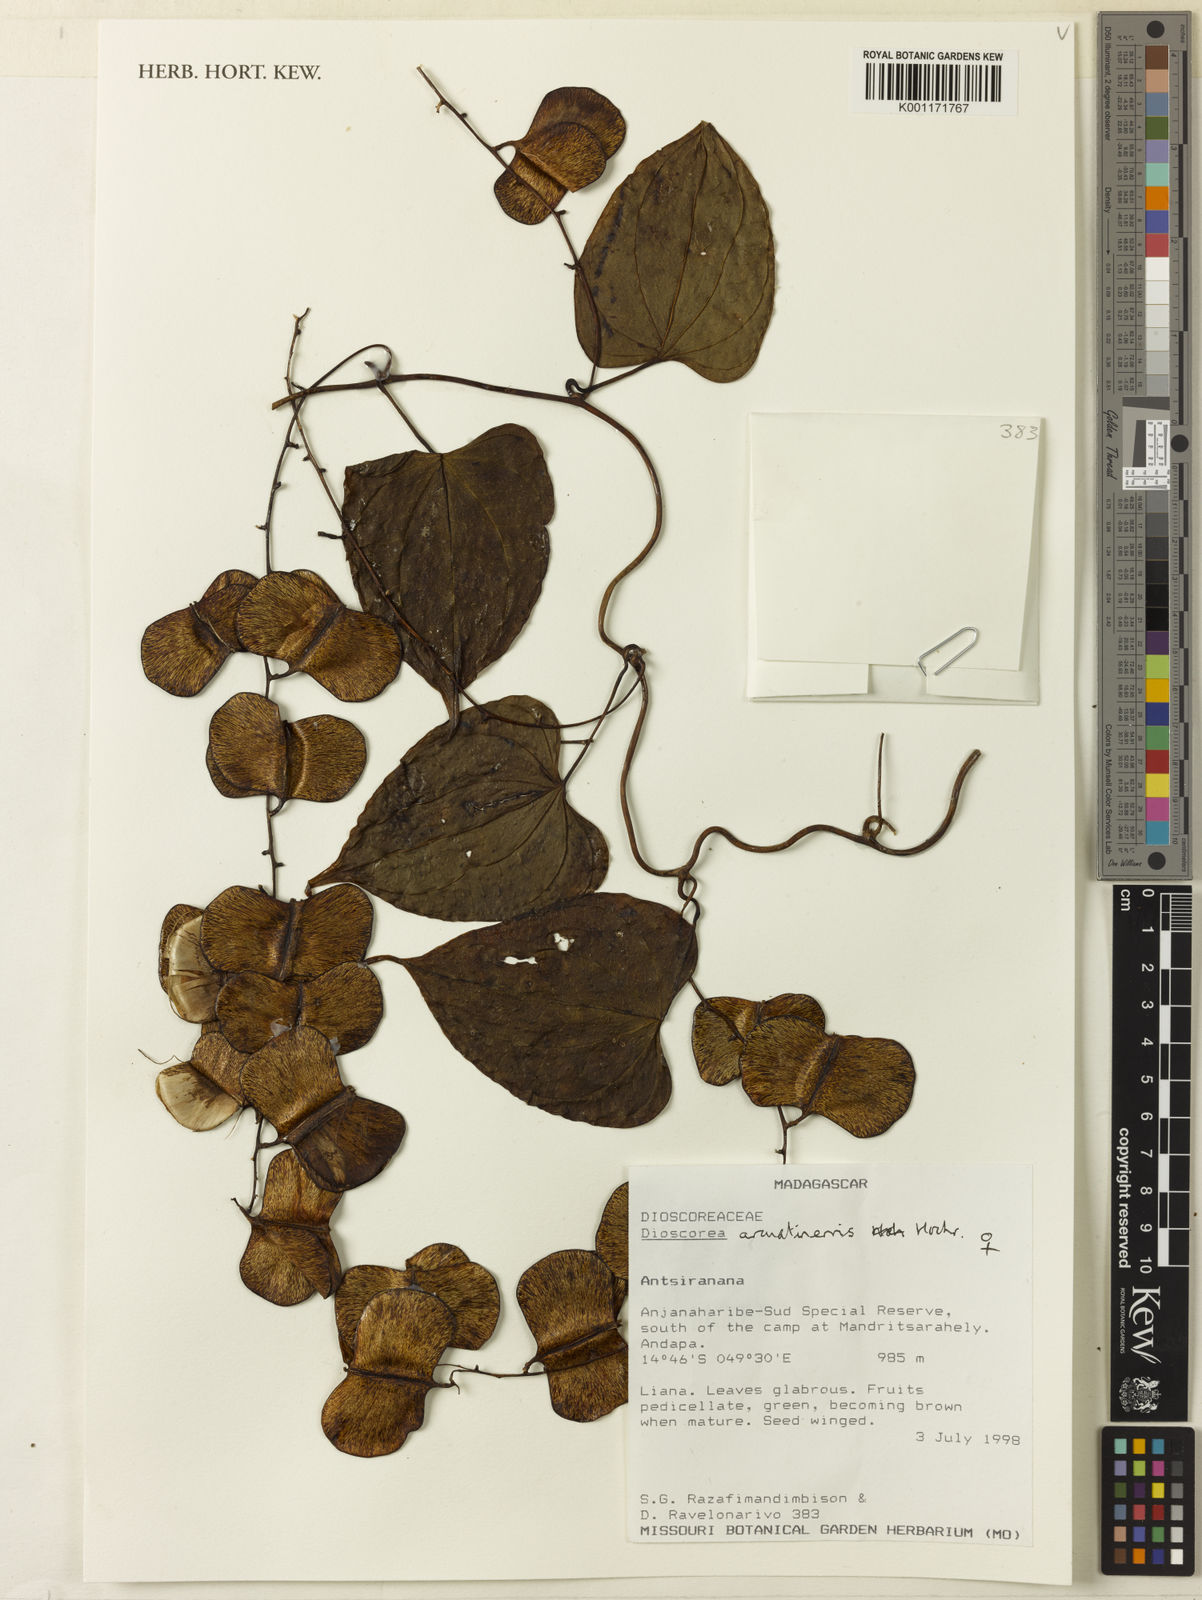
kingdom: Plantae
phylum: Tracheophyta
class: Liliopsida
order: Dioscoreales
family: Dioscoreaceae
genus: Dioscorea
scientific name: Dioscorea arcuatinervis
